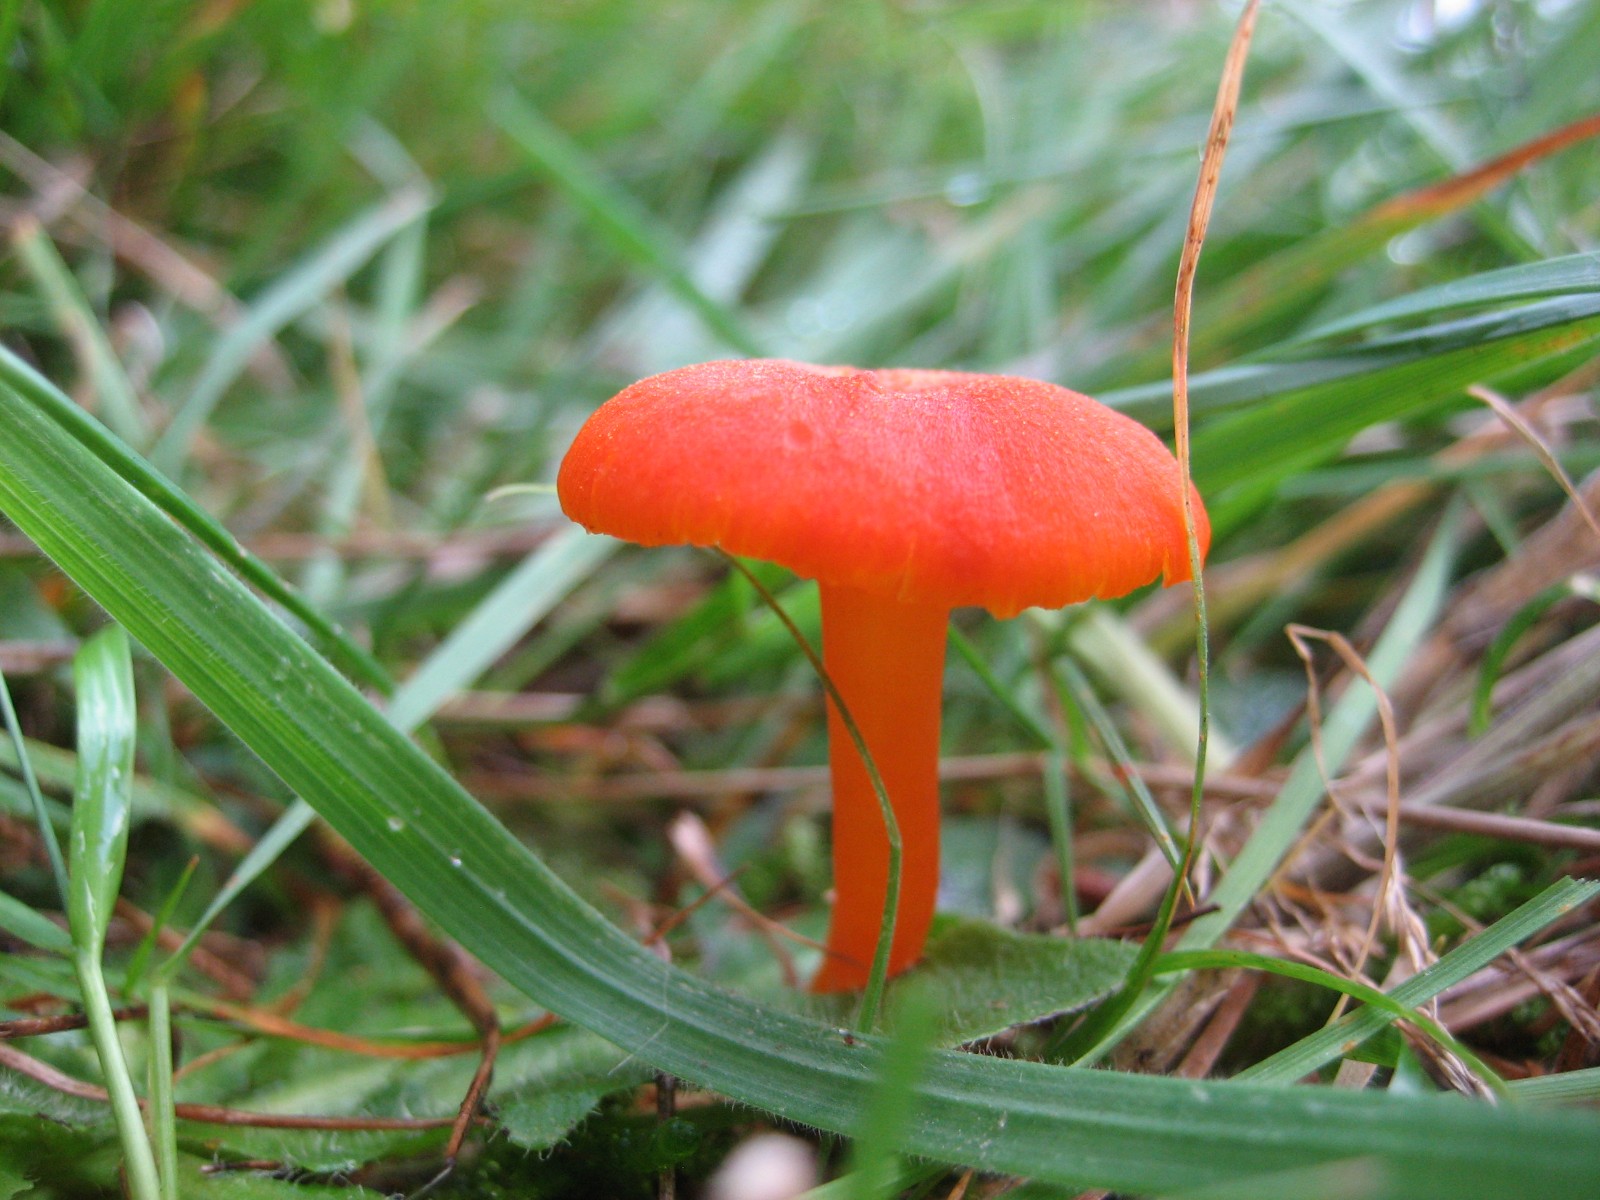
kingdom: Fungi
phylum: Basidiomycota
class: Agaricomycetes
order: Agaricales
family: Hygrophoraceae
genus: Hygrocybe
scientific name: Hygrocybe miniata
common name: mønje-vokshat
